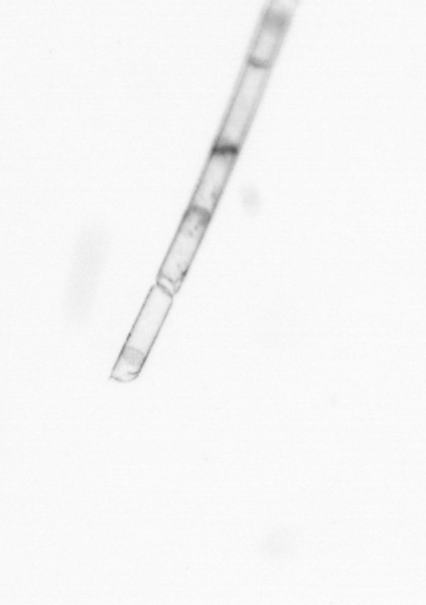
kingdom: Chromista
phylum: Ochrophyta
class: Bacillariophyceae
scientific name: Bacillariophyceae
